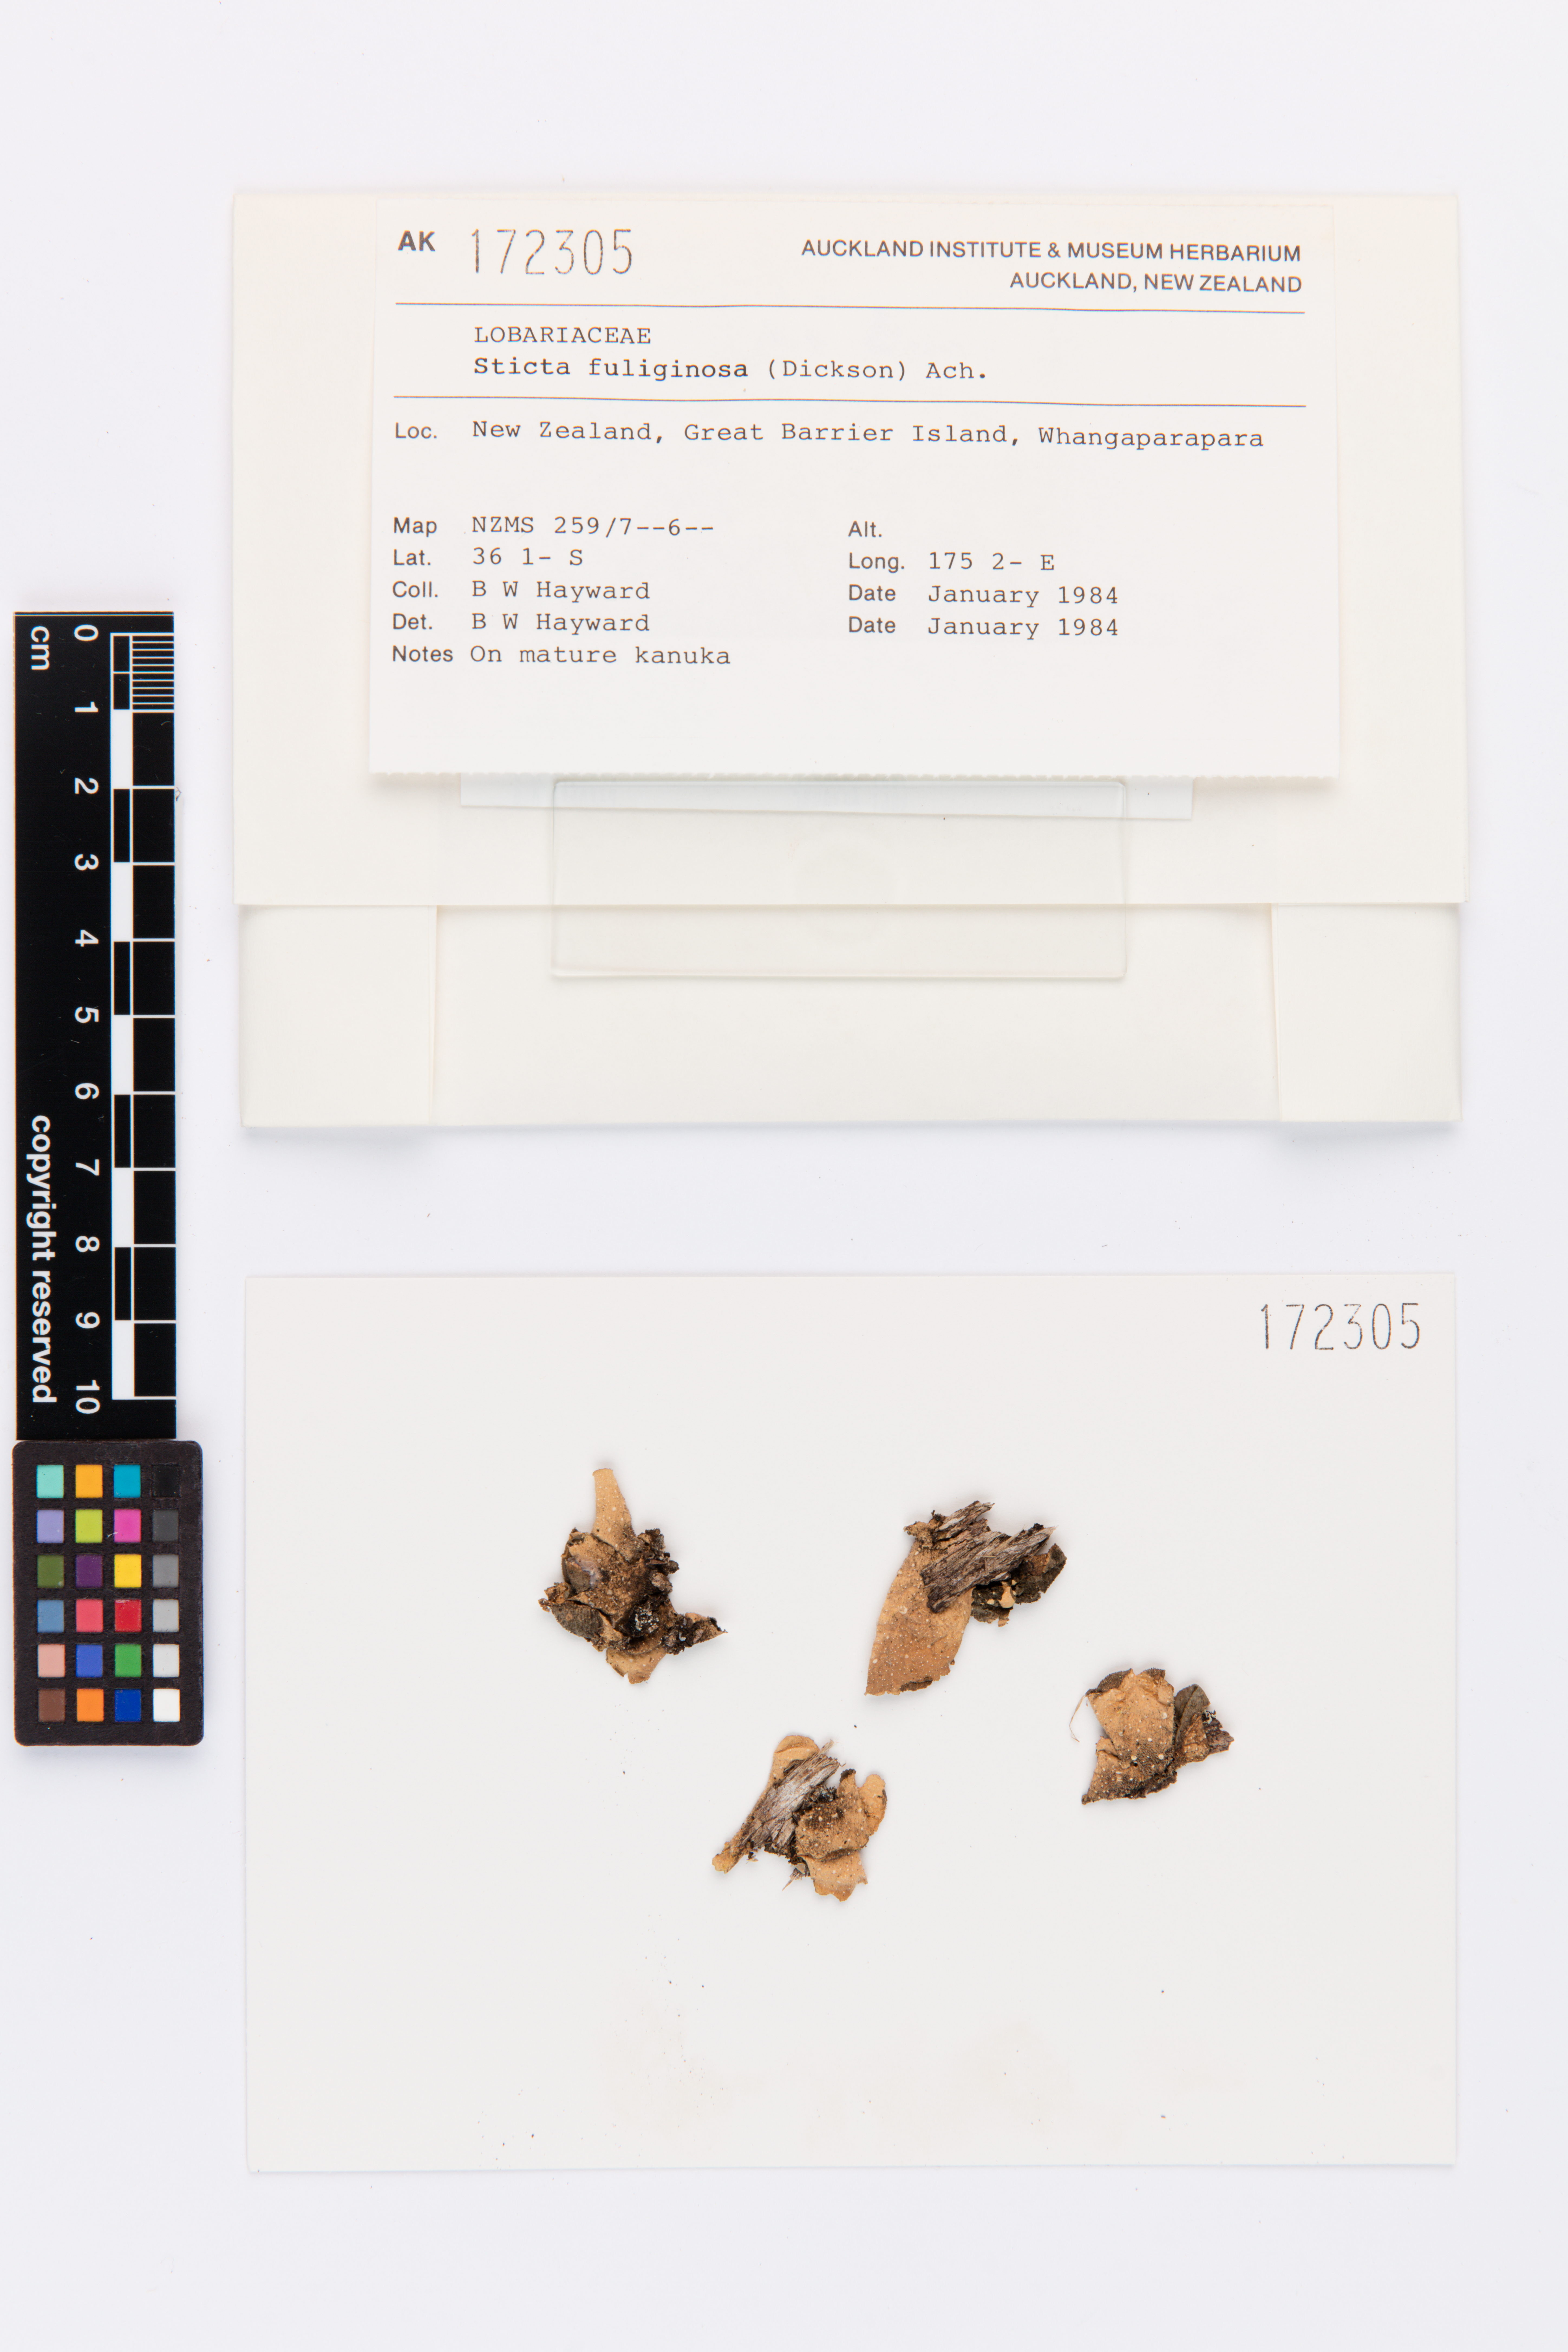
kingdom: Fungi
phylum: Ascomycota
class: Lecanoromycetes
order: Peltigerales
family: Lobariaceae
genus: Sticta
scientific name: Sticta fuliginosa
